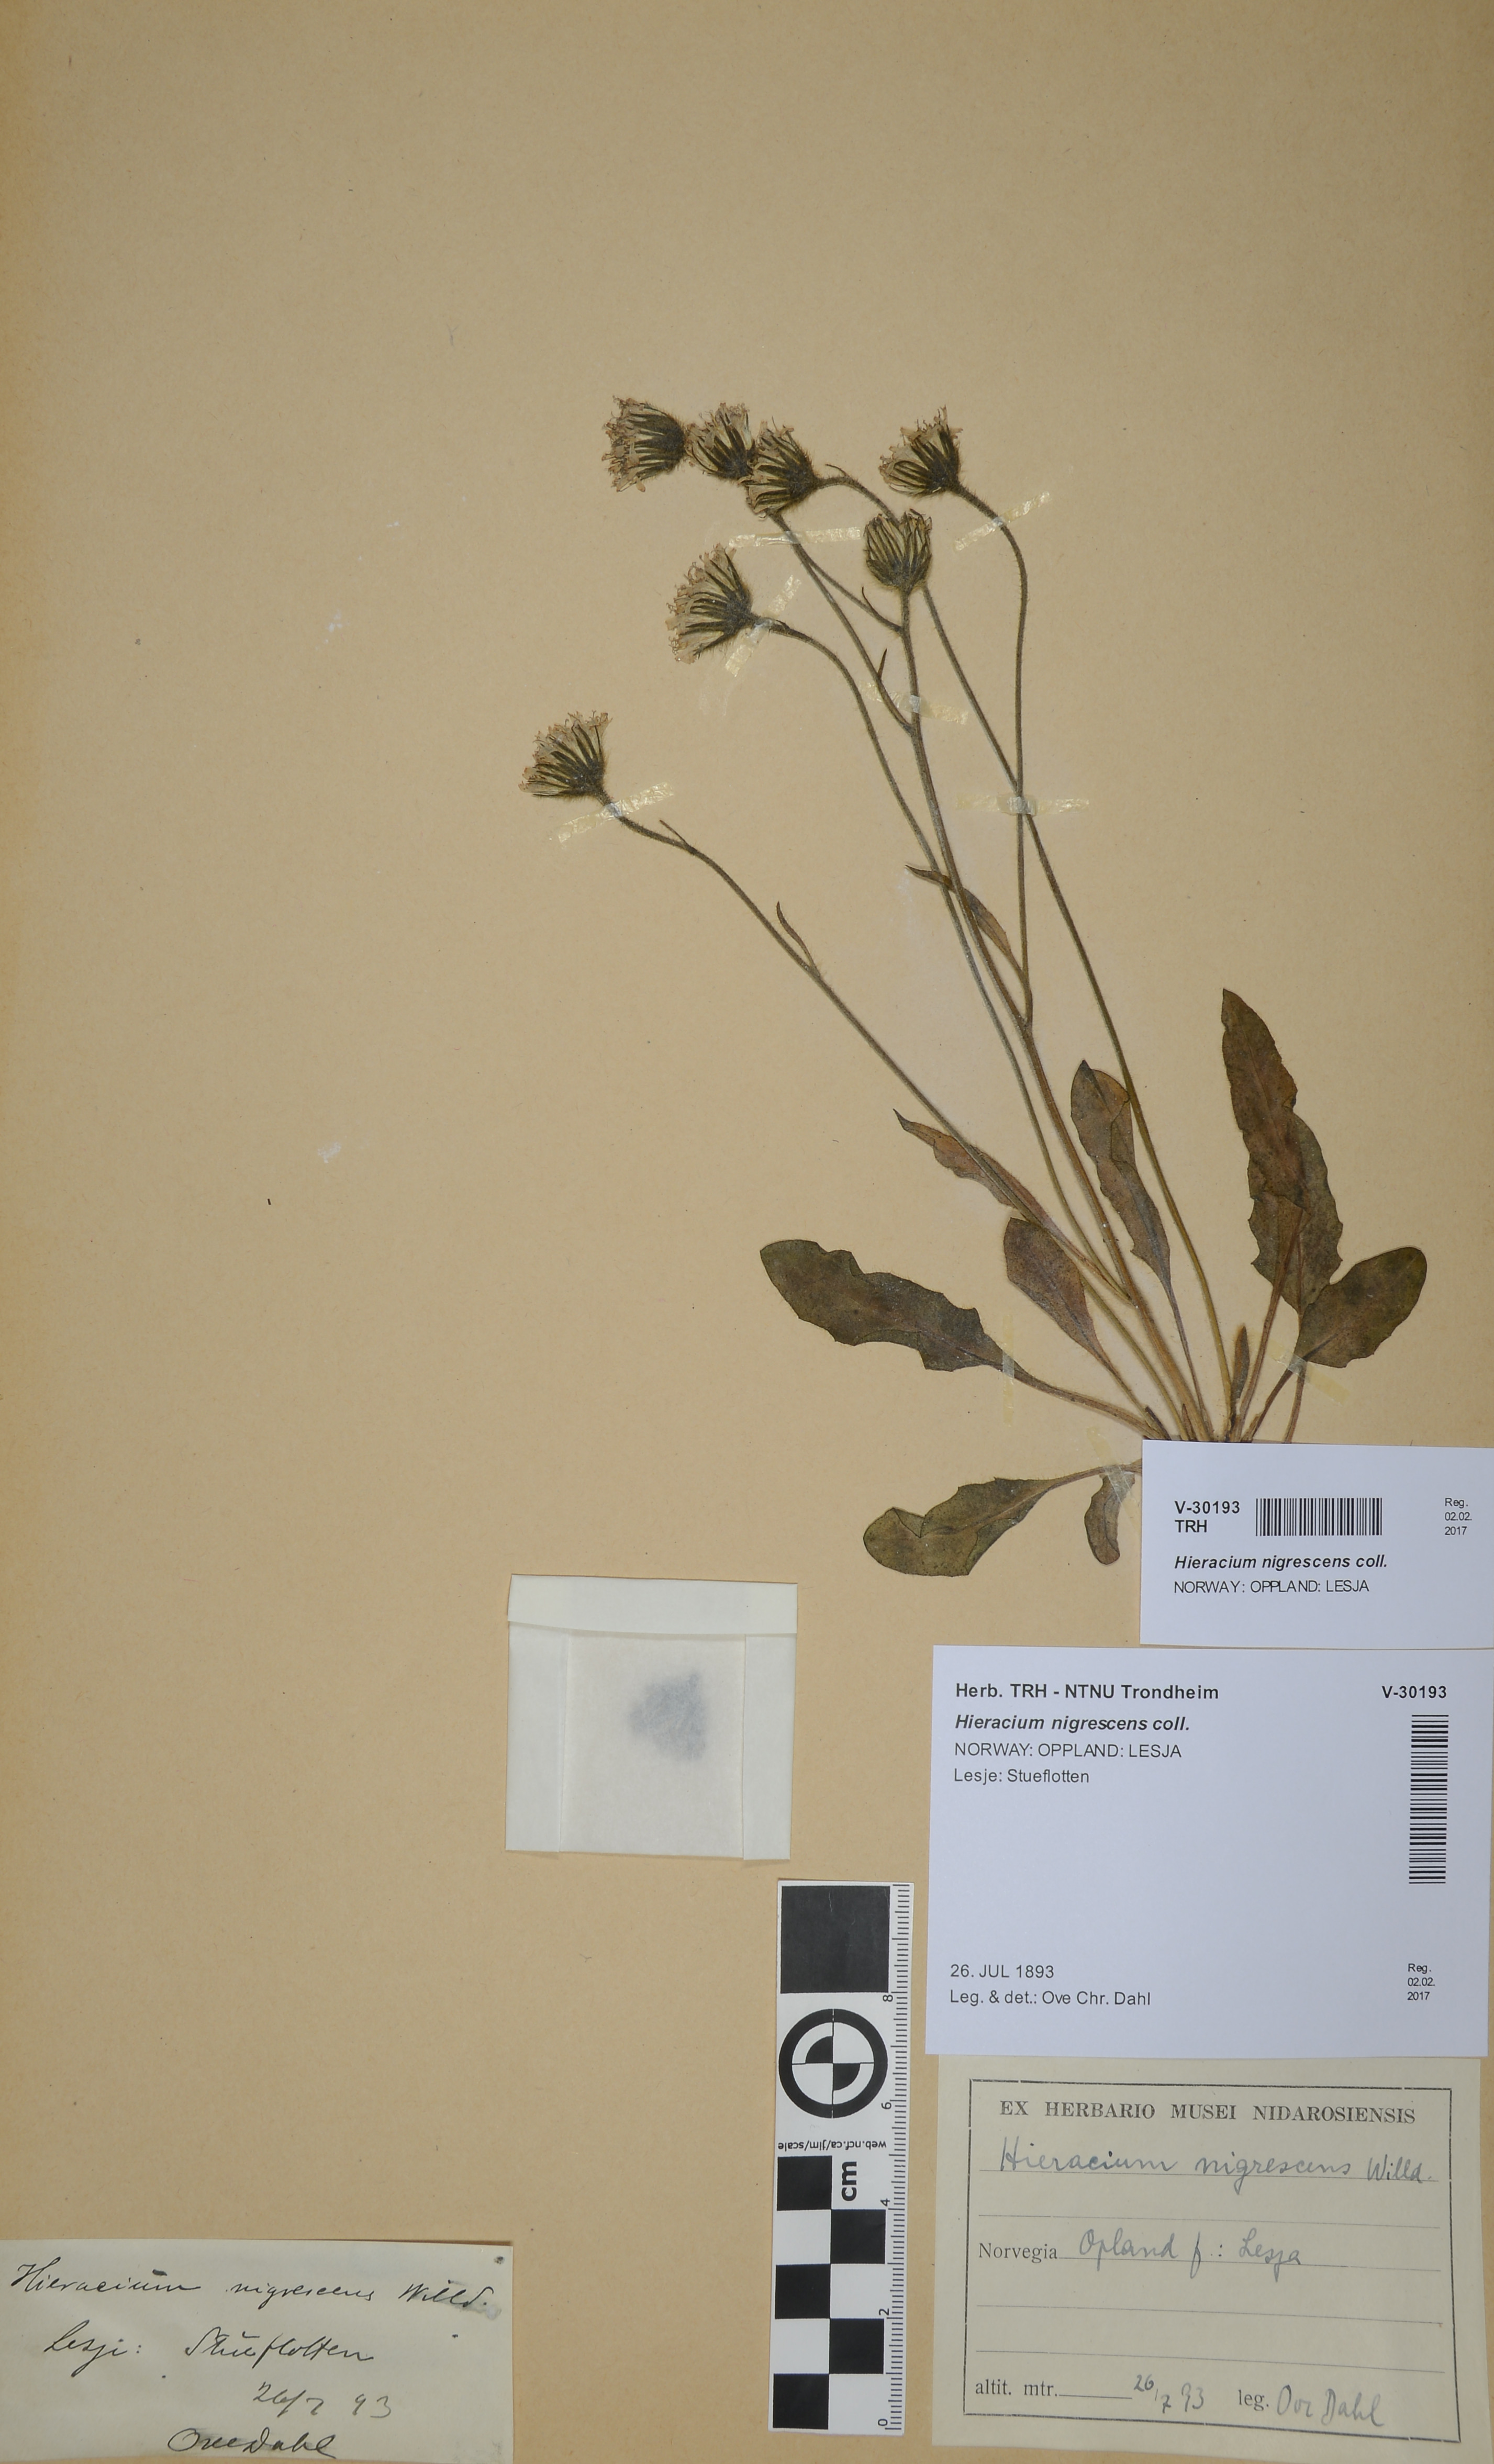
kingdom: Plantae
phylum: Tracheophyta
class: Magnoliopsida
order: Asterales
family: Asteraceae
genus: Hieracium
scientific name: Hieracium nigrescens
